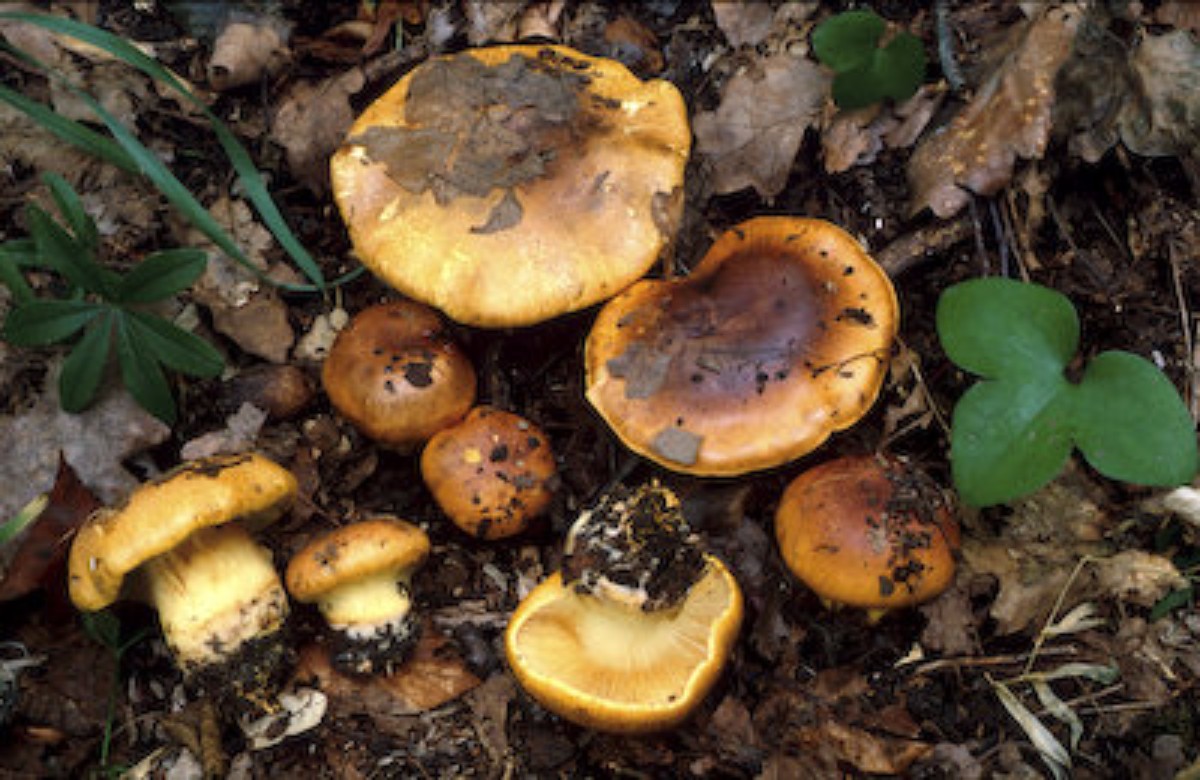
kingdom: Fungi
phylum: Basidiomycota
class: Agaricomycetes
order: Agaricales
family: Cortinariaceae
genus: Phlegmacium
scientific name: Phlegmacium aurilicis
